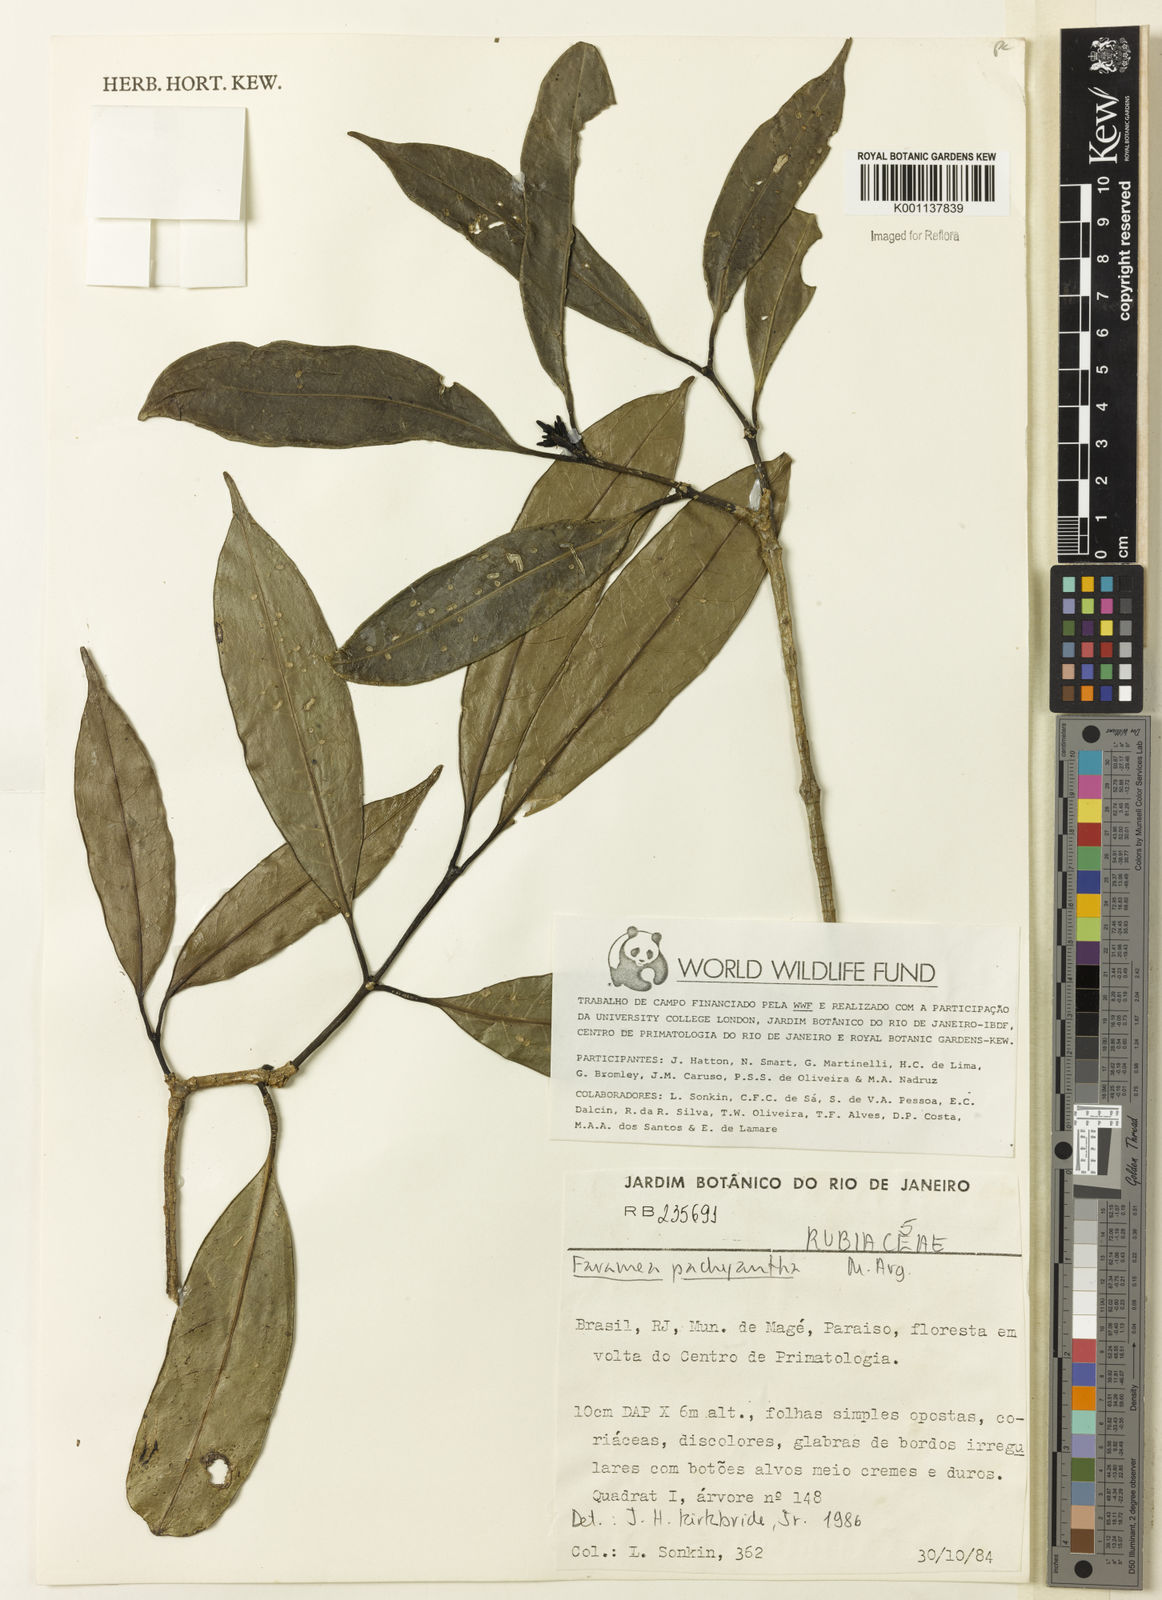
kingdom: Plantae
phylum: Tracheophyta
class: Magnoliopsida
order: Gentianales
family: Rubiaceae
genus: Faramea
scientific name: Faramea
